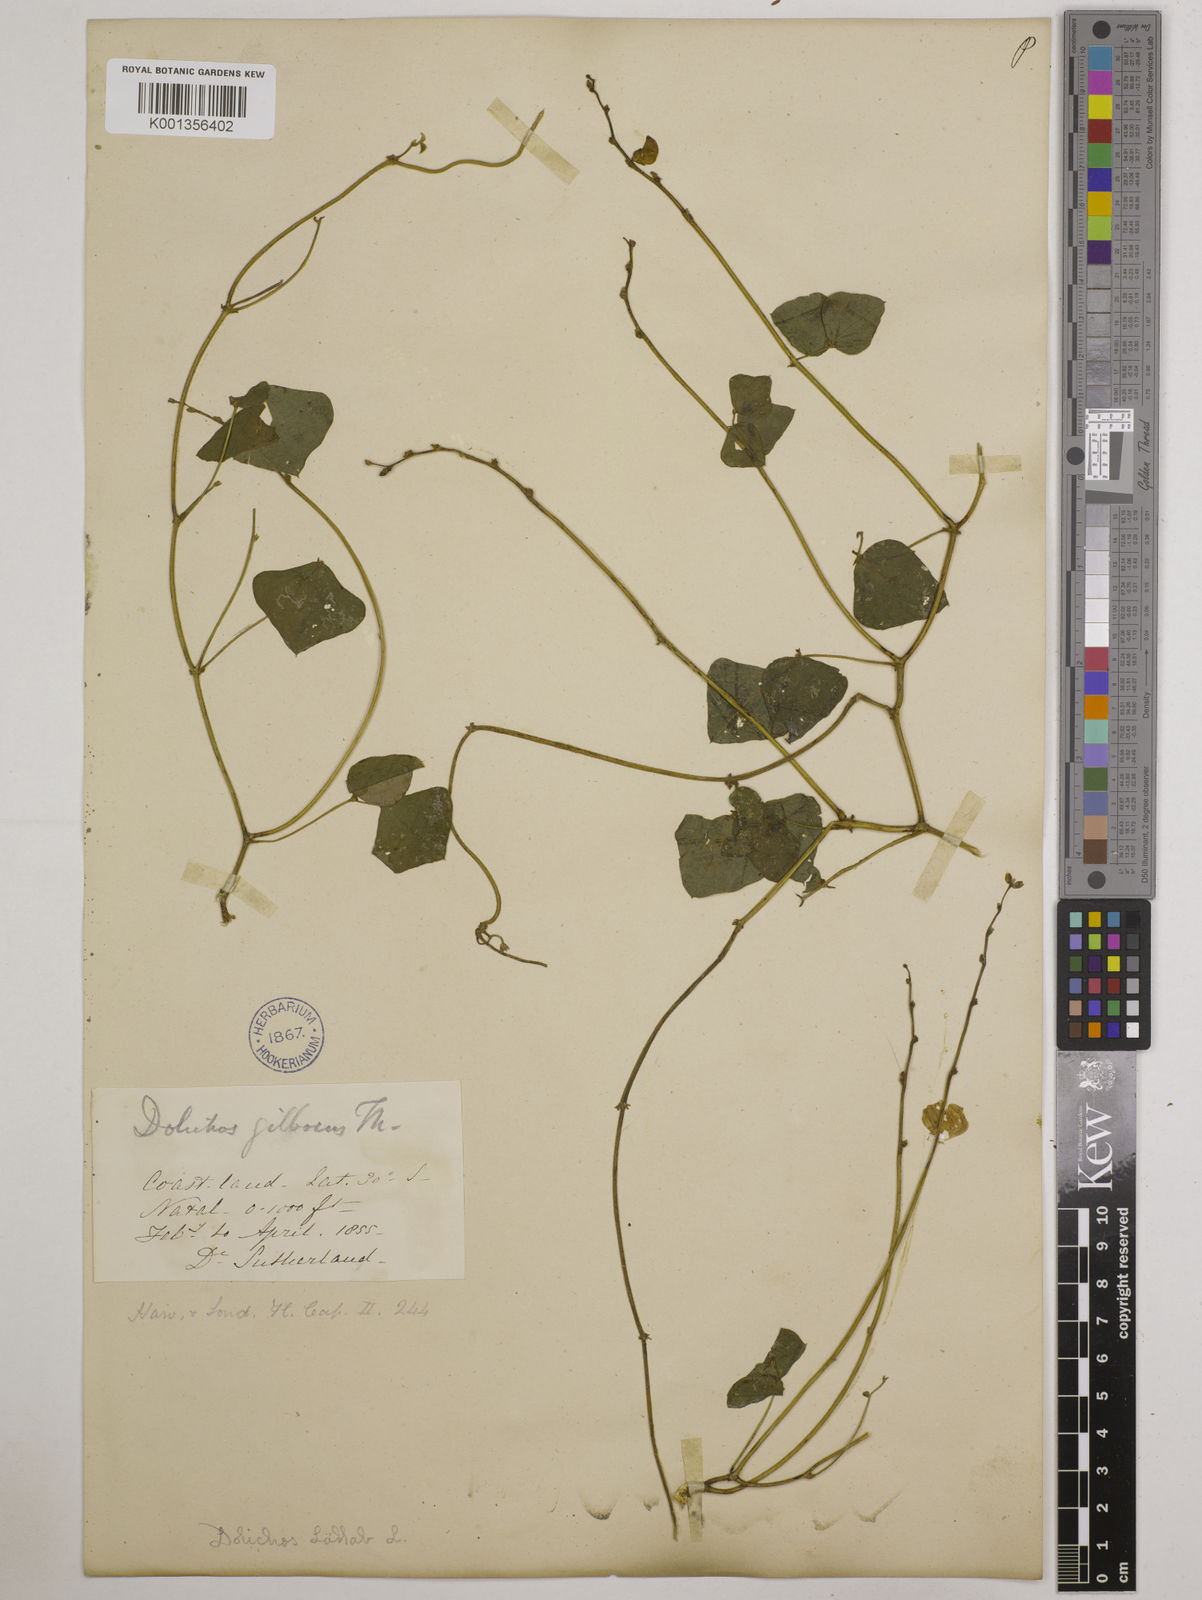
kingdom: Plantae
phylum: Tracheophyta
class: Magnoliopsida
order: Fabales
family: Fabaceae
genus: Lablab
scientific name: Lablab purpureus
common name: Lablab-bean
